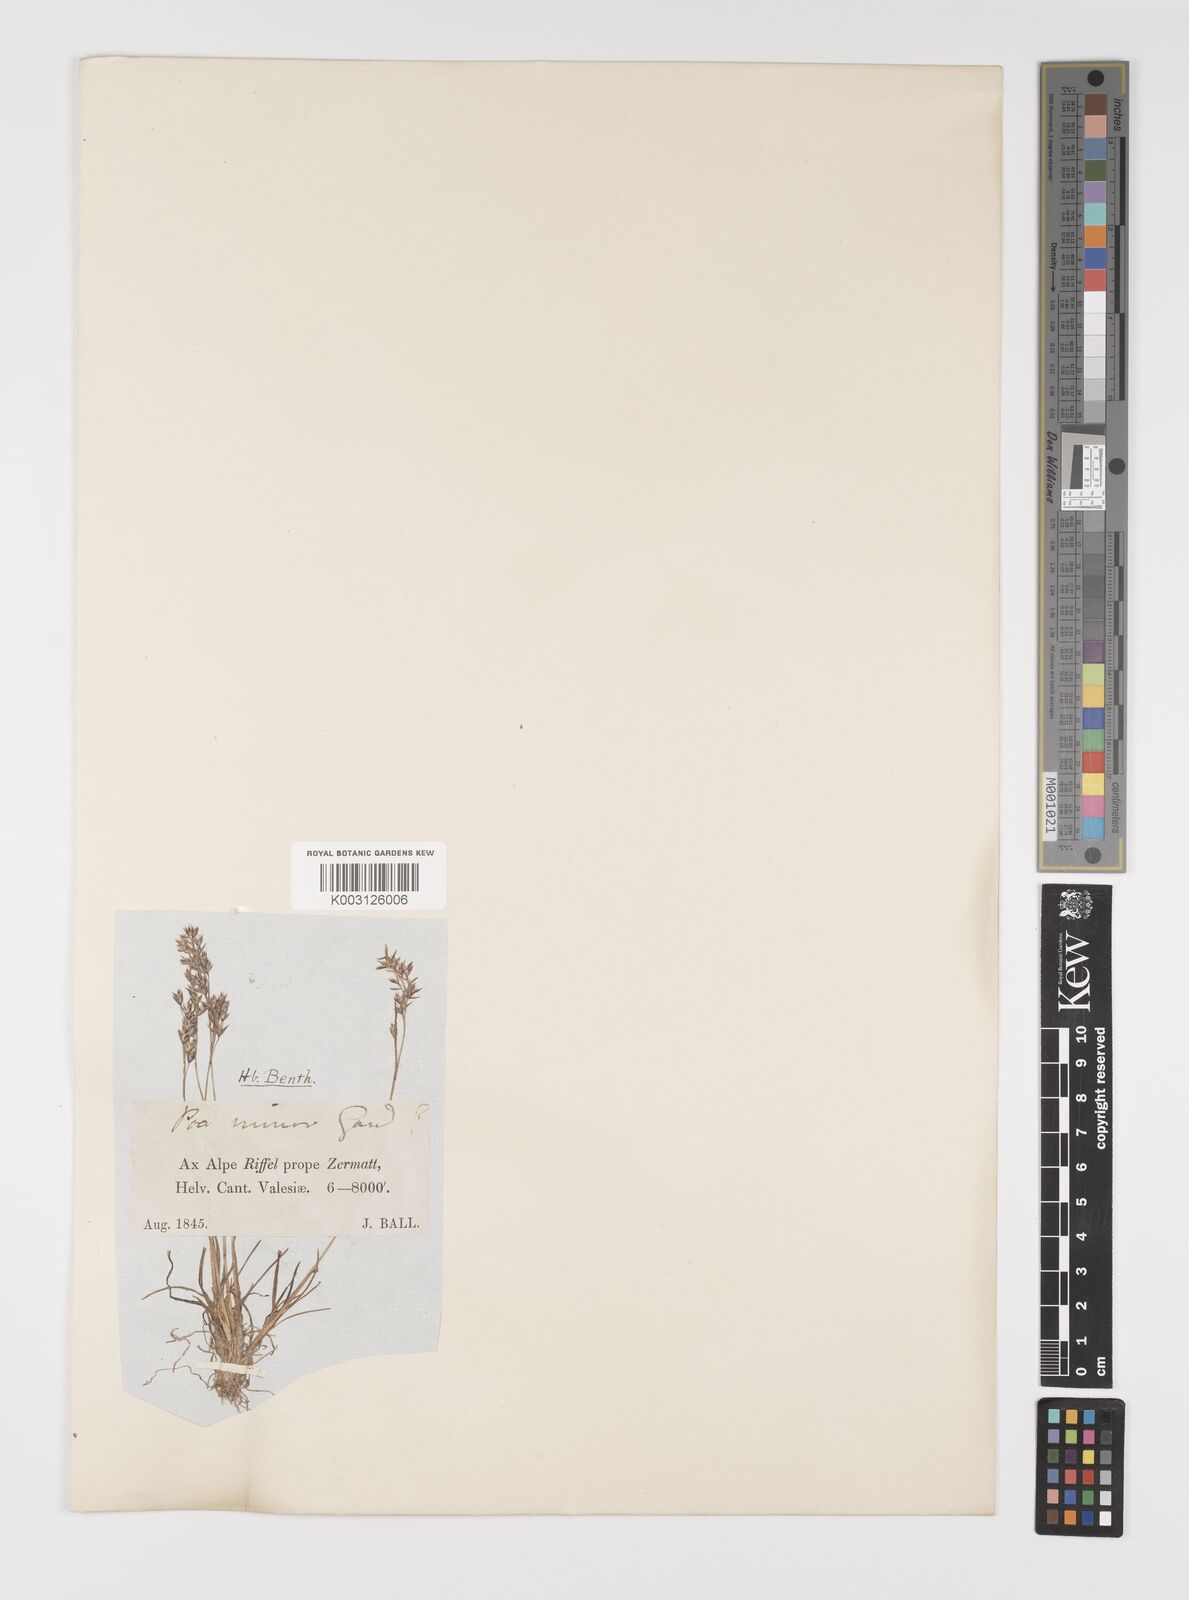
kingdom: Plantae
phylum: Tracheophyta
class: Liliopsida
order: Poales
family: Poaceae
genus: Poa
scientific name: Poa minor
